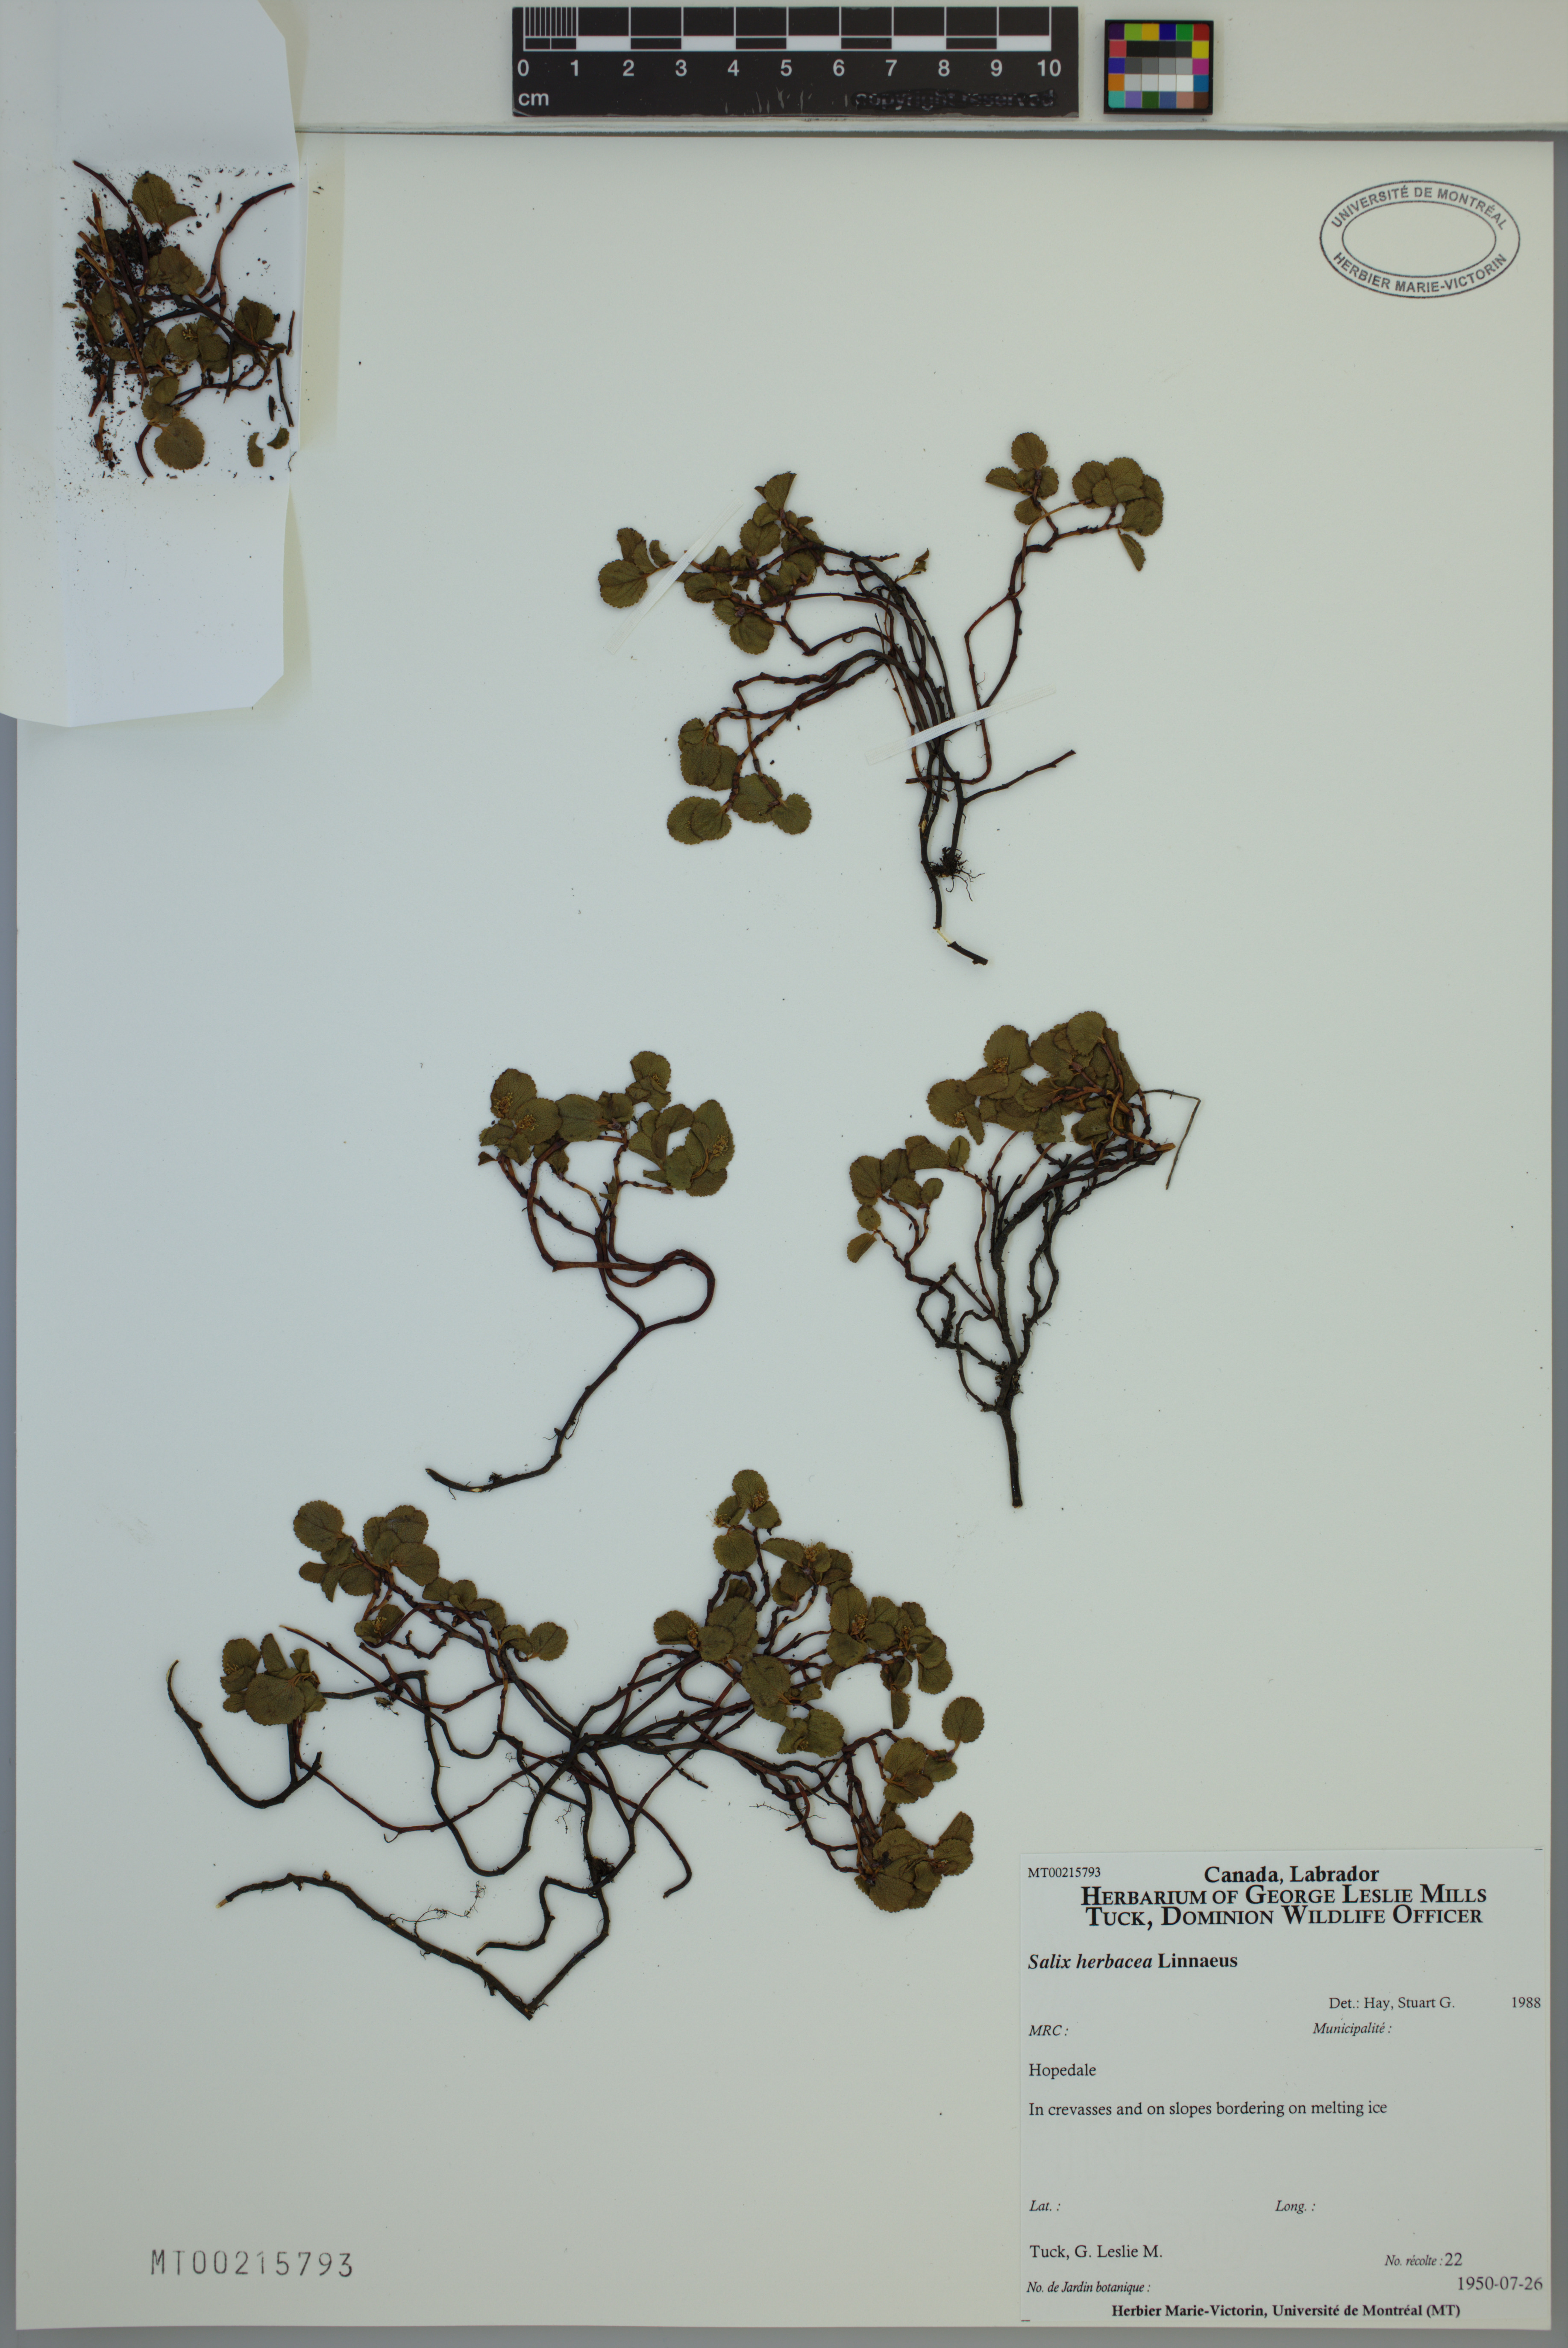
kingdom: Plantae
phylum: Tracheophyta
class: Magnoliopsida
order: Malpighiales
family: Salicaceae
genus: Salix
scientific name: Salix herbacea
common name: Dwarf willow
